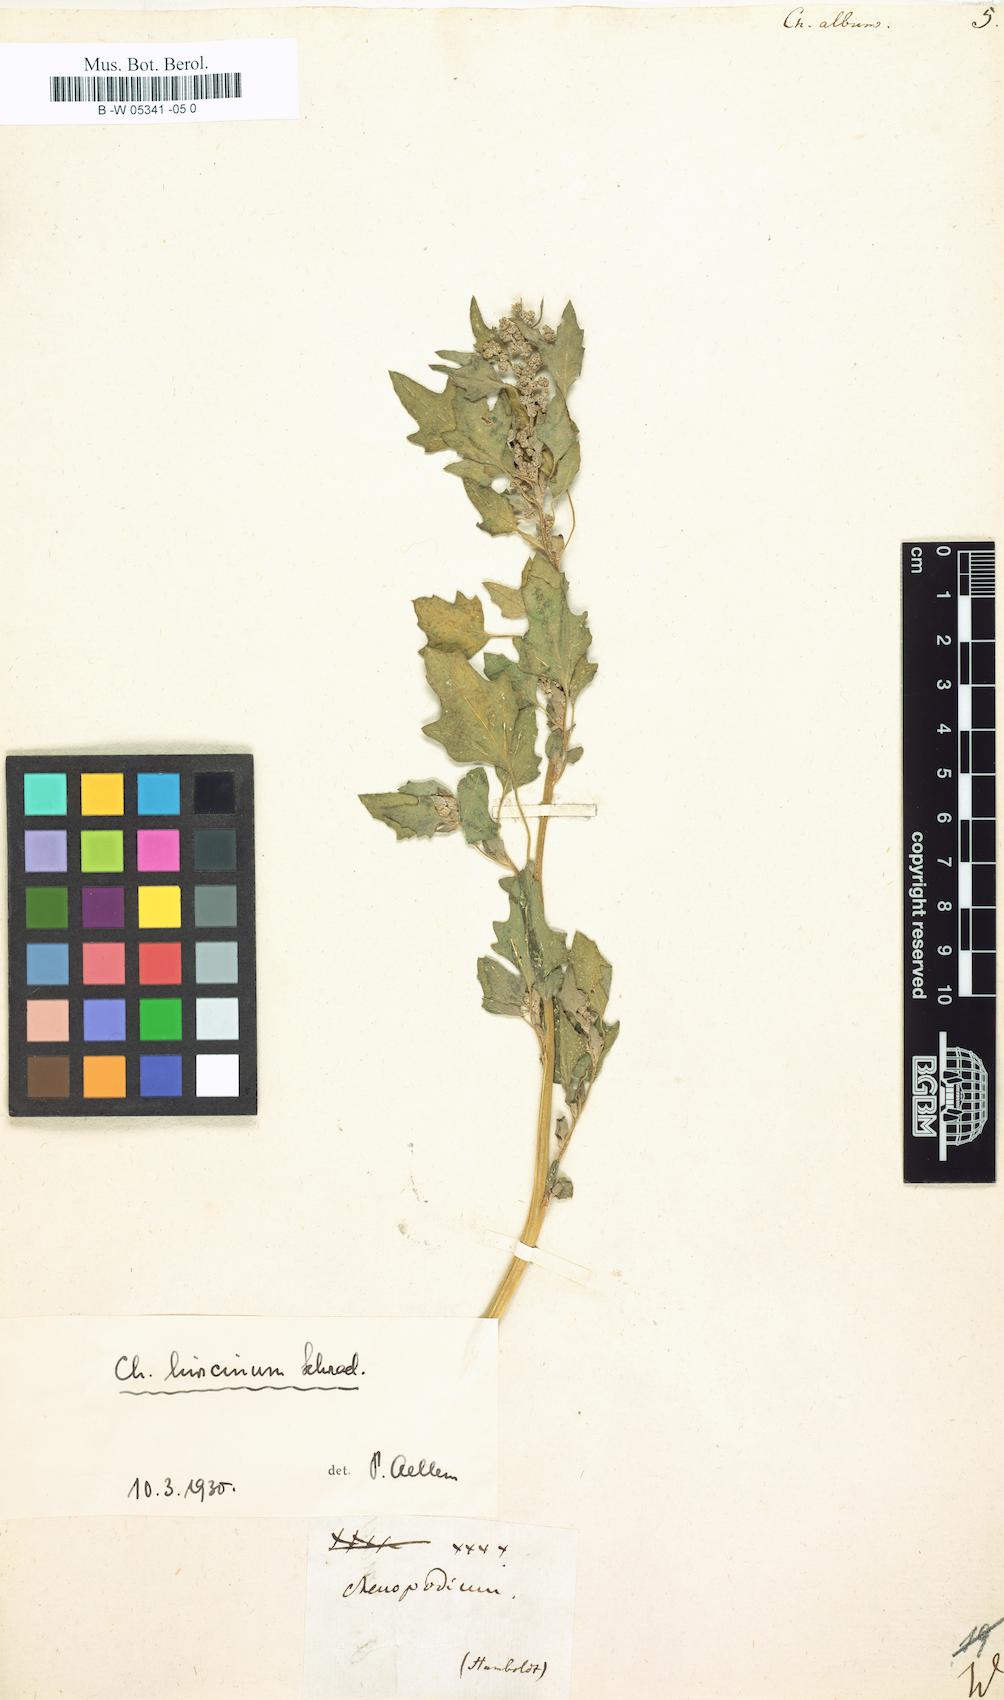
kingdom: Plantae
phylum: Tracheophyta
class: Magnoliopsida
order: Caryophyllales
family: Amaranthaceae
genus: Chenopodium
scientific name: Chenopodium album
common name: Fat-hen
